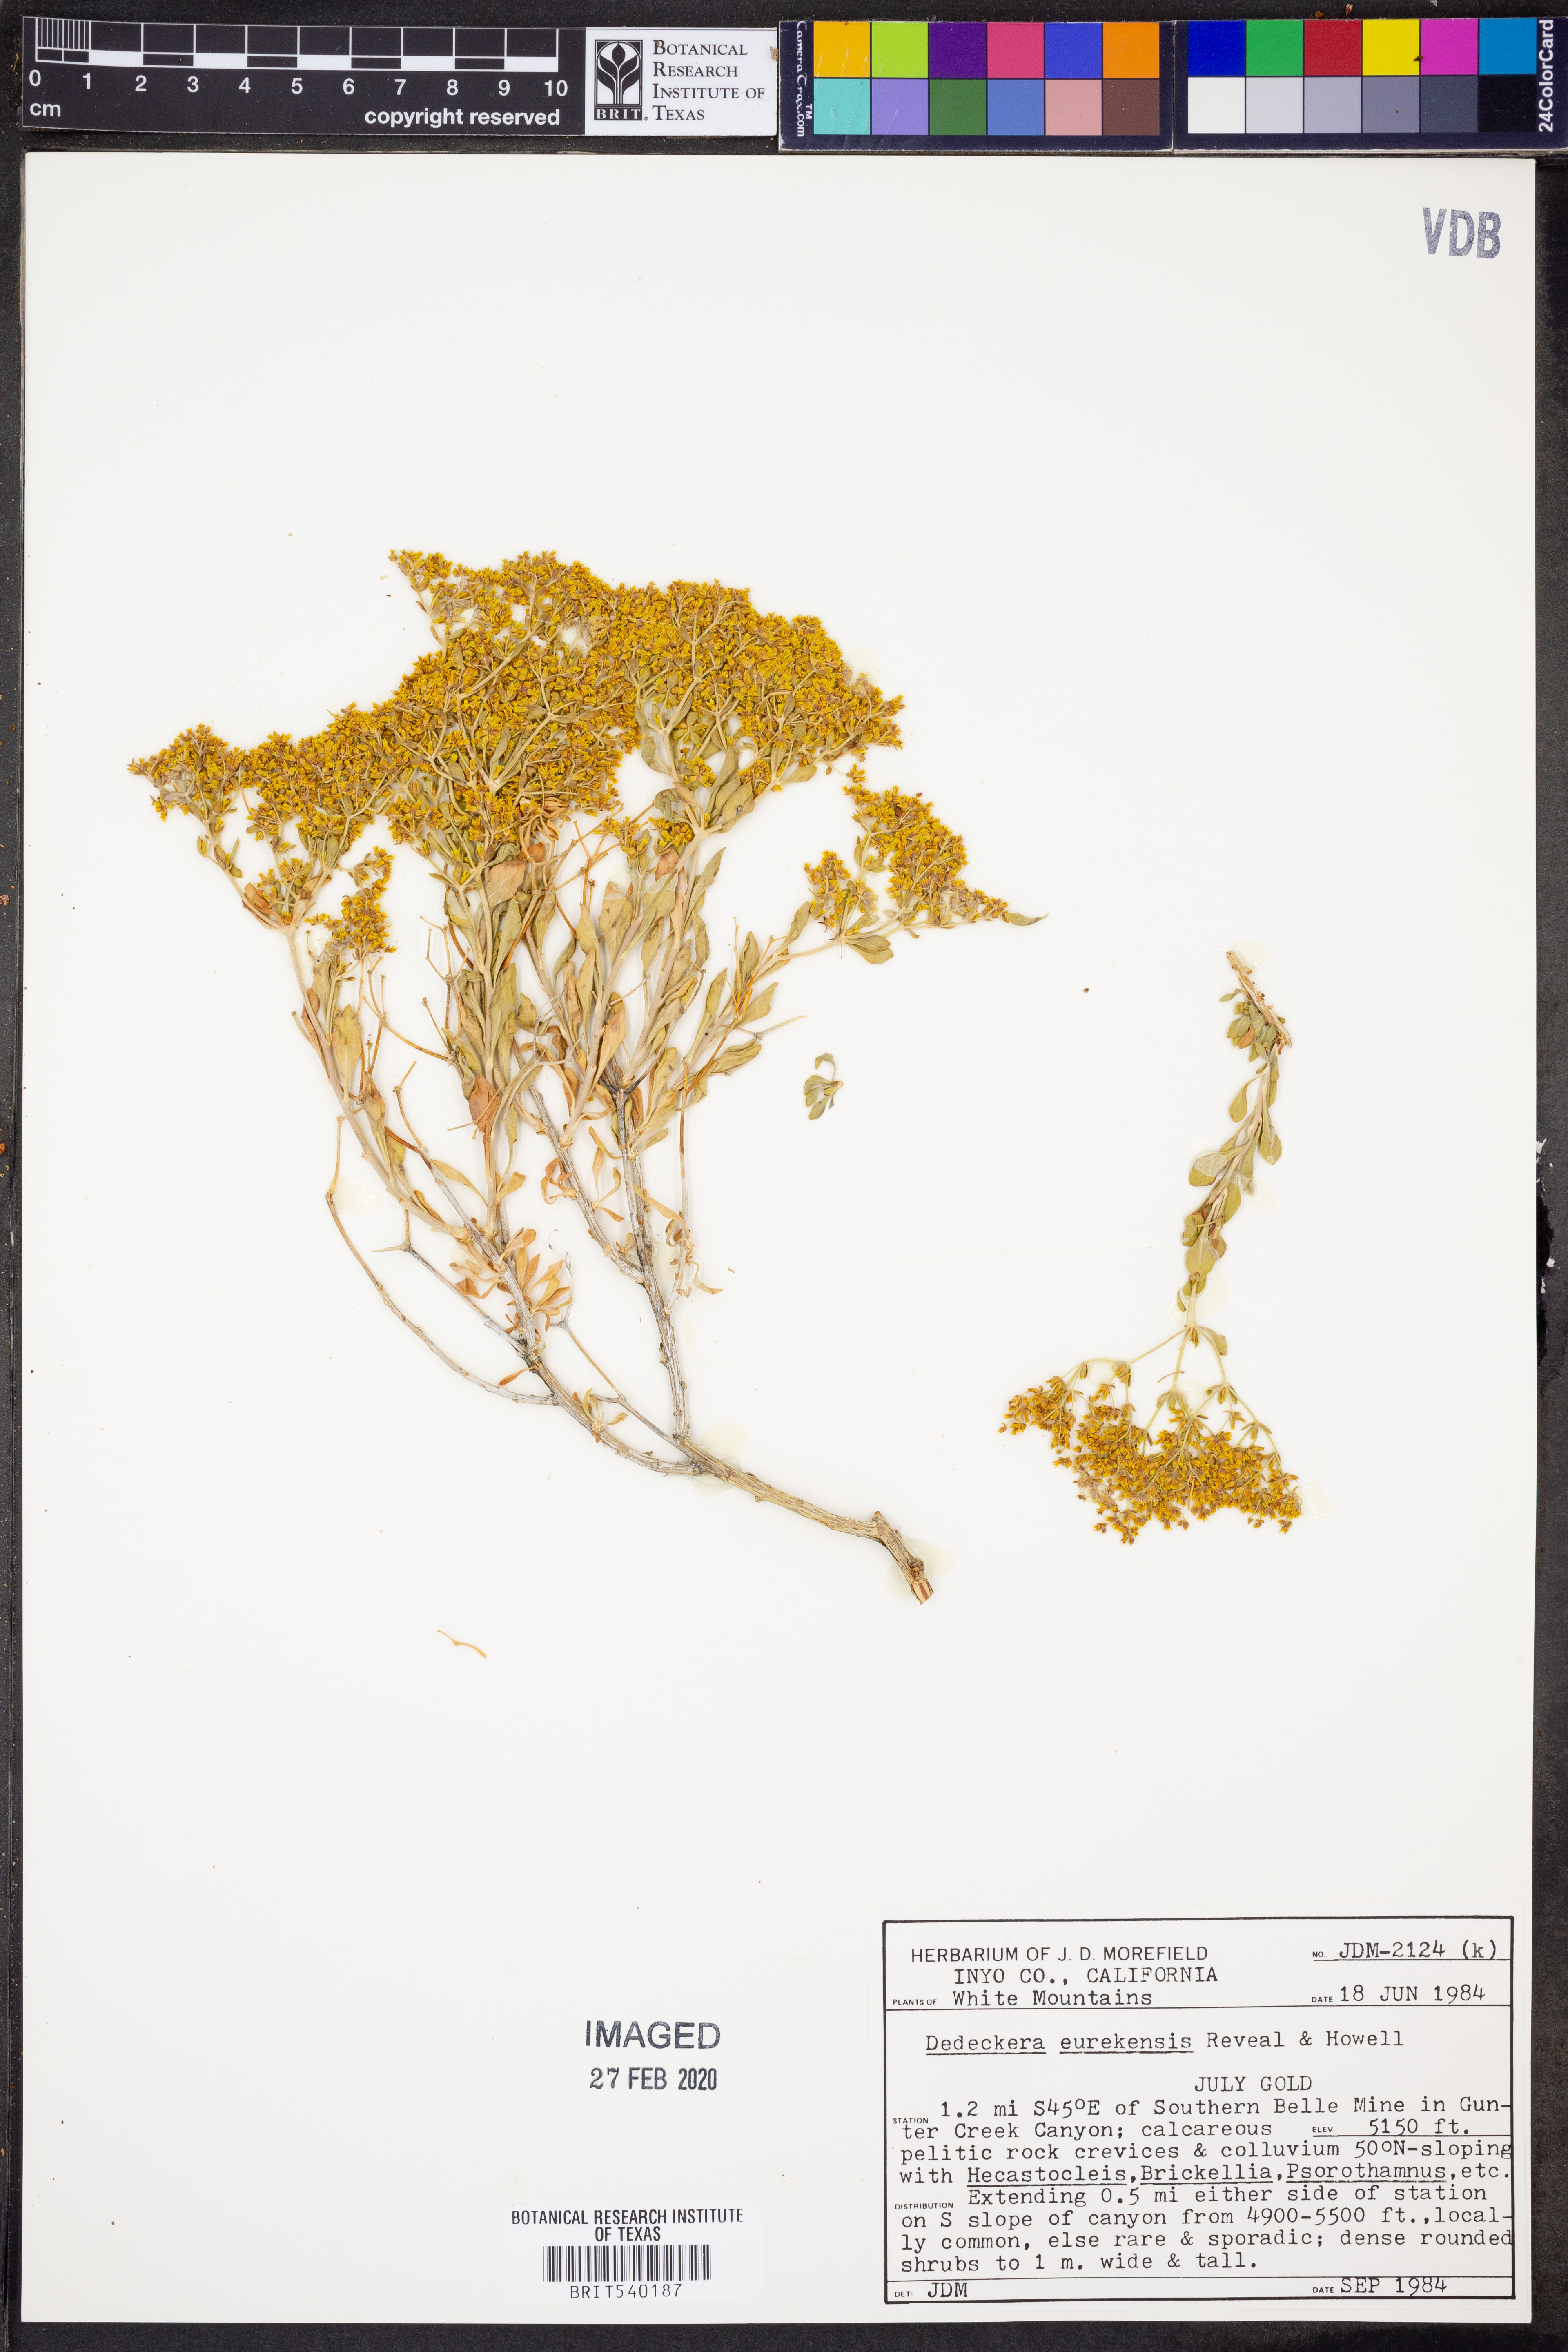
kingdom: Plantae
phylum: Tracheophyta
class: Magnoliopsida
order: Caryophyllales
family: Polygonaceae
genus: Dedeckera
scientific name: Dedeckera eurekensis
